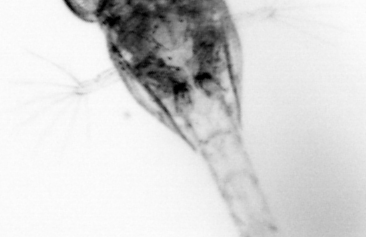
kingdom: Animalia
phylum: Arthropoda
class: Copepoda
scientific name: Copepoda
